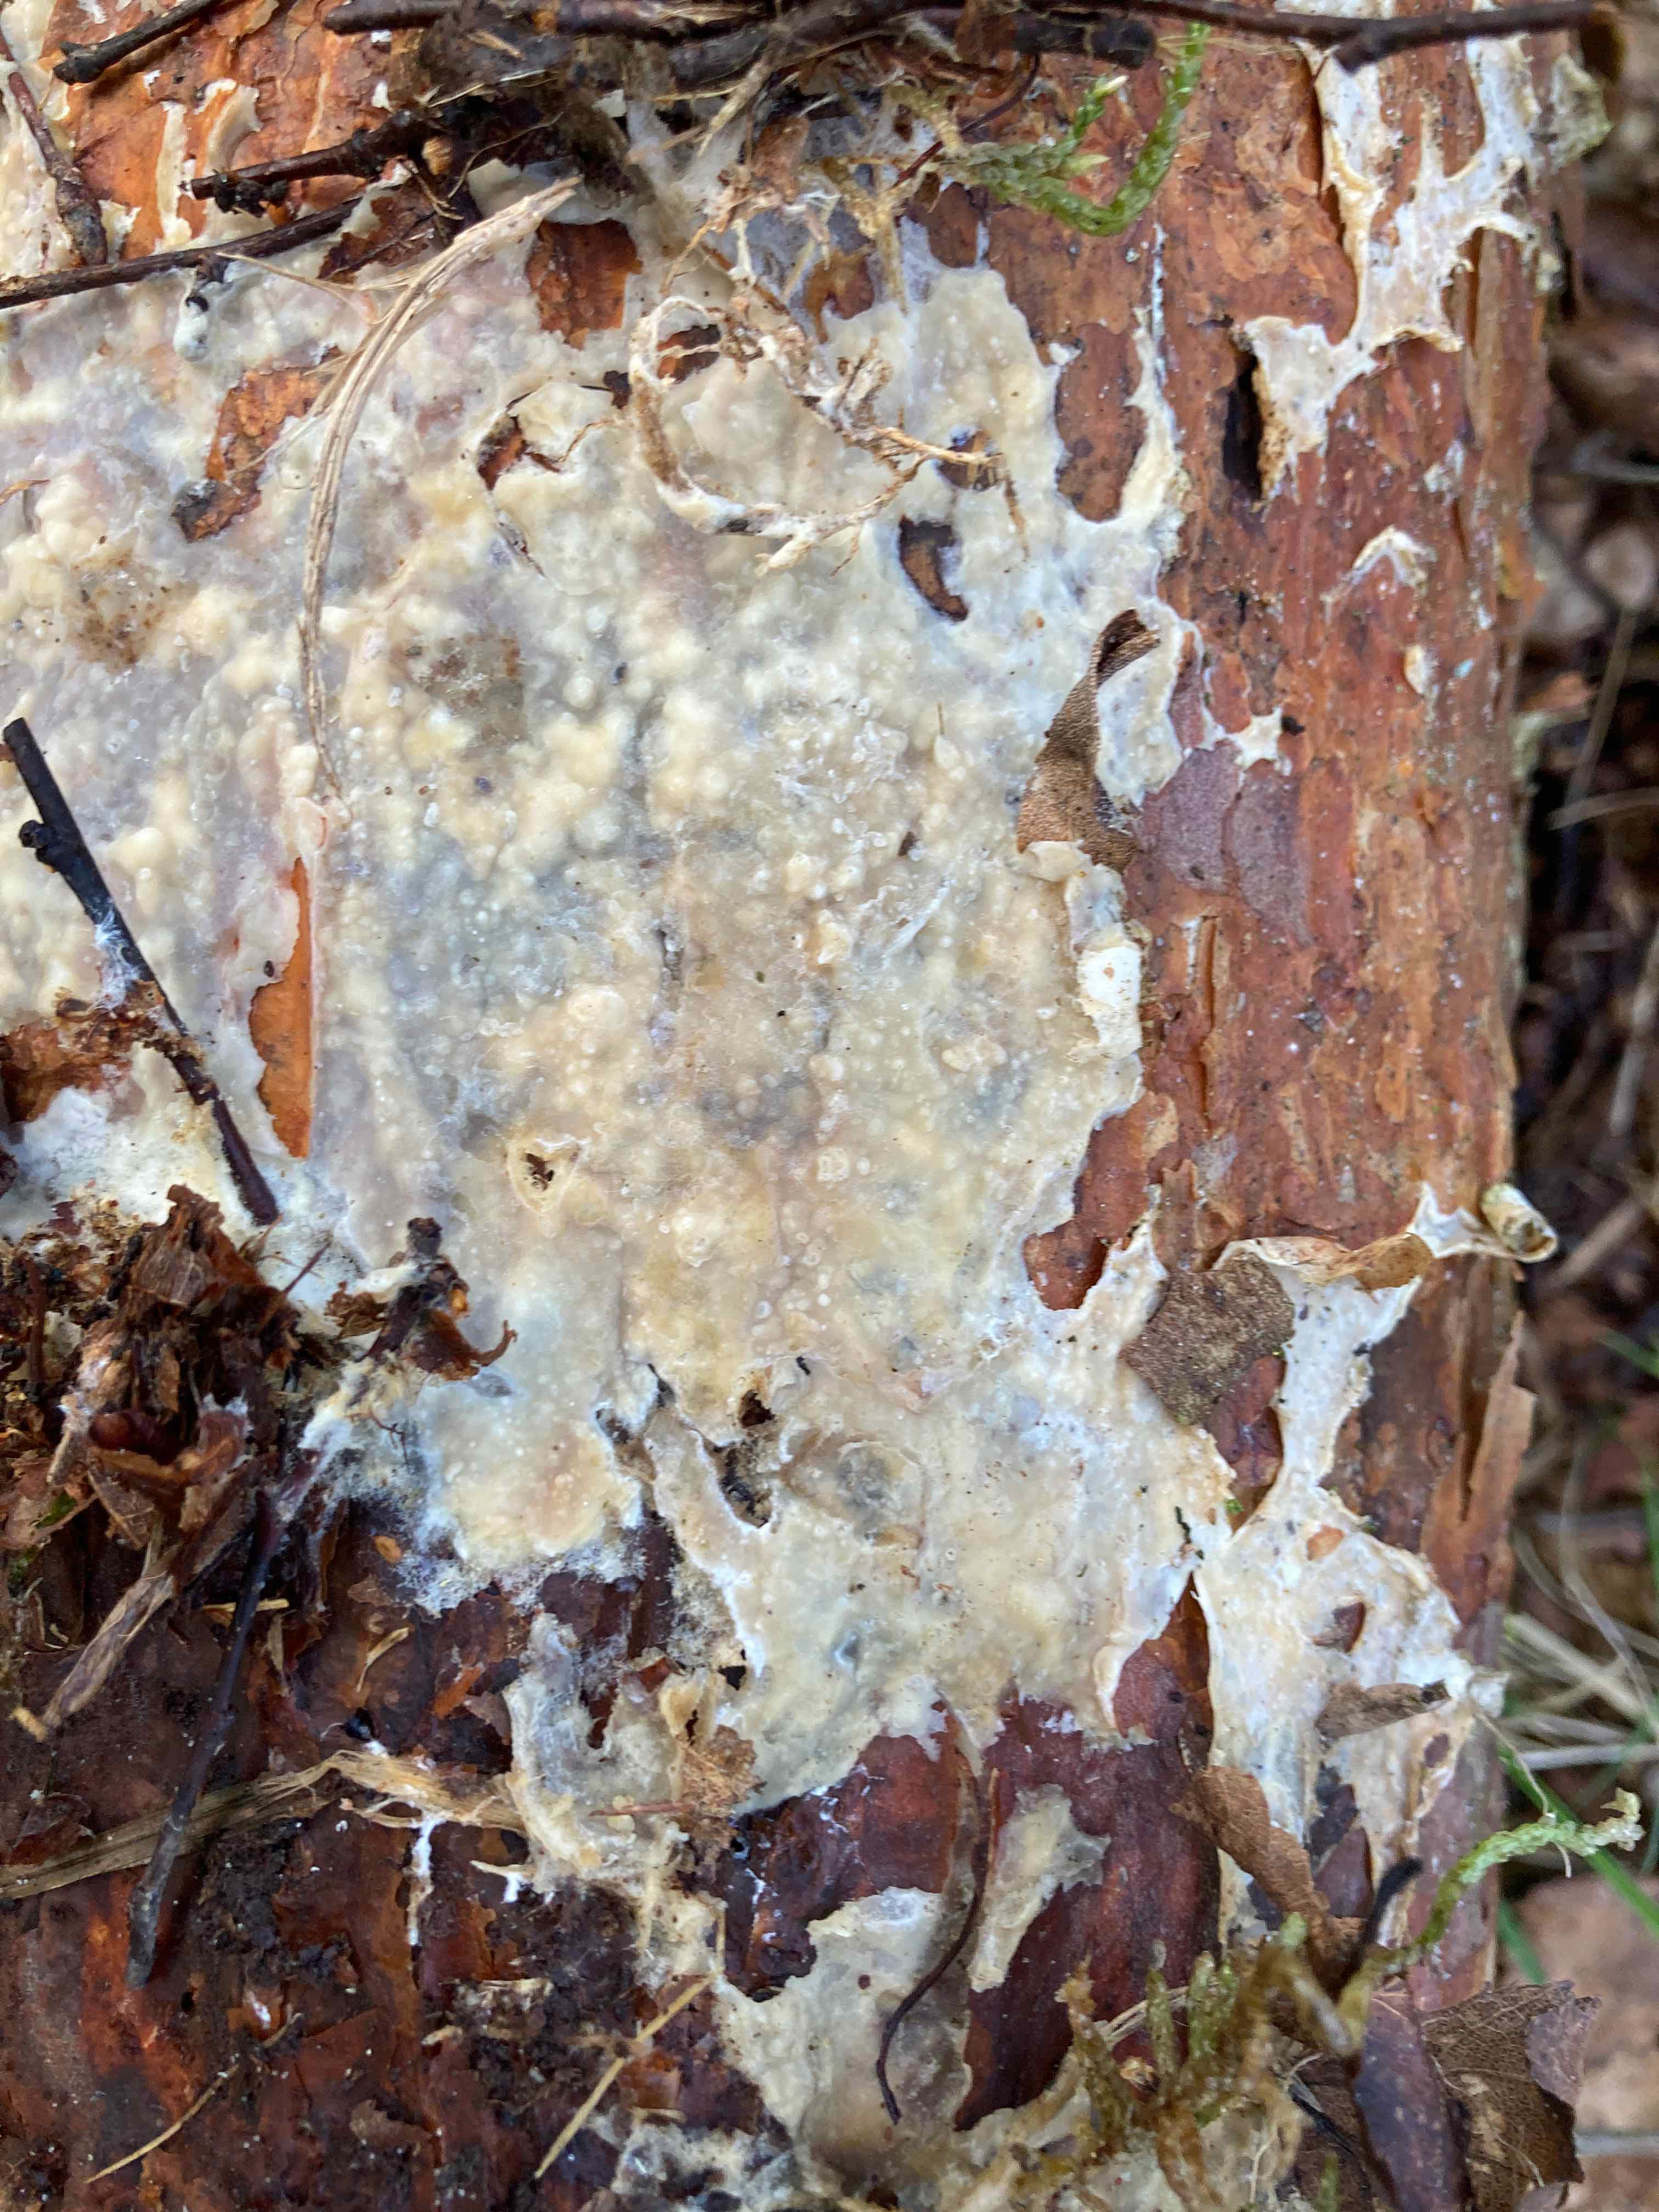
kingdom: Fungi
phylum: Basidiomycota
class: Agaricomycetes
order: Polyporales
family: Phanerochaetaceae
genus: Phlebiopsis
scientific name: Phlebiopsis gigantea
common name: kæmpebarksvamp
